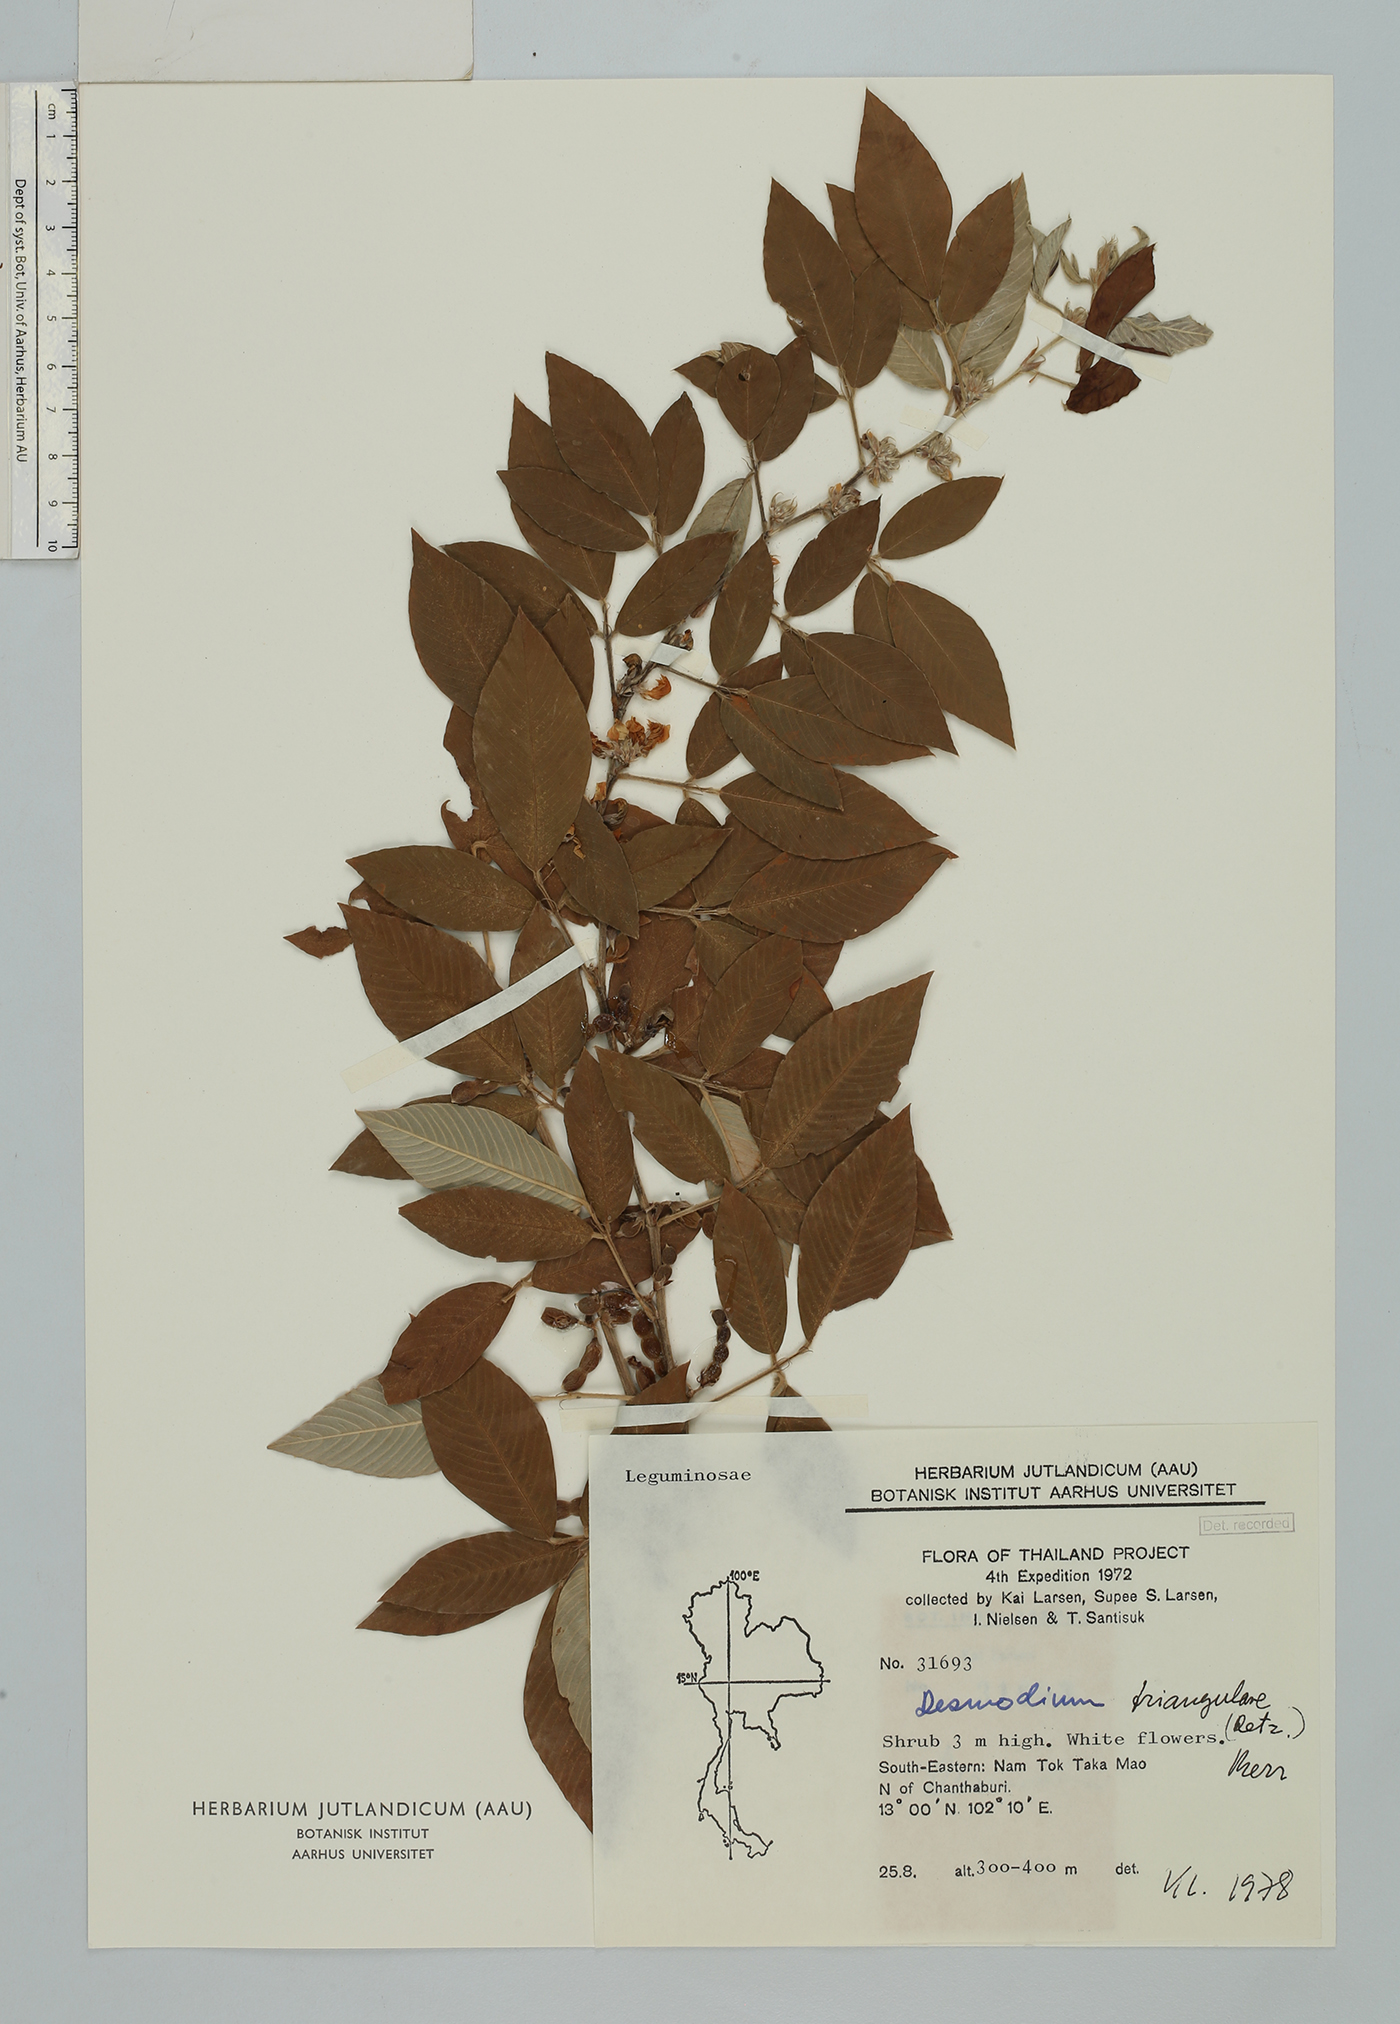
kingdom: Plantae
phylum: Tracheophyta
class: Magnoliopsida
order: Fabales
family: Fabaceae
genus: Dendrolobium
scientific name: Dendrolobium triangulare
